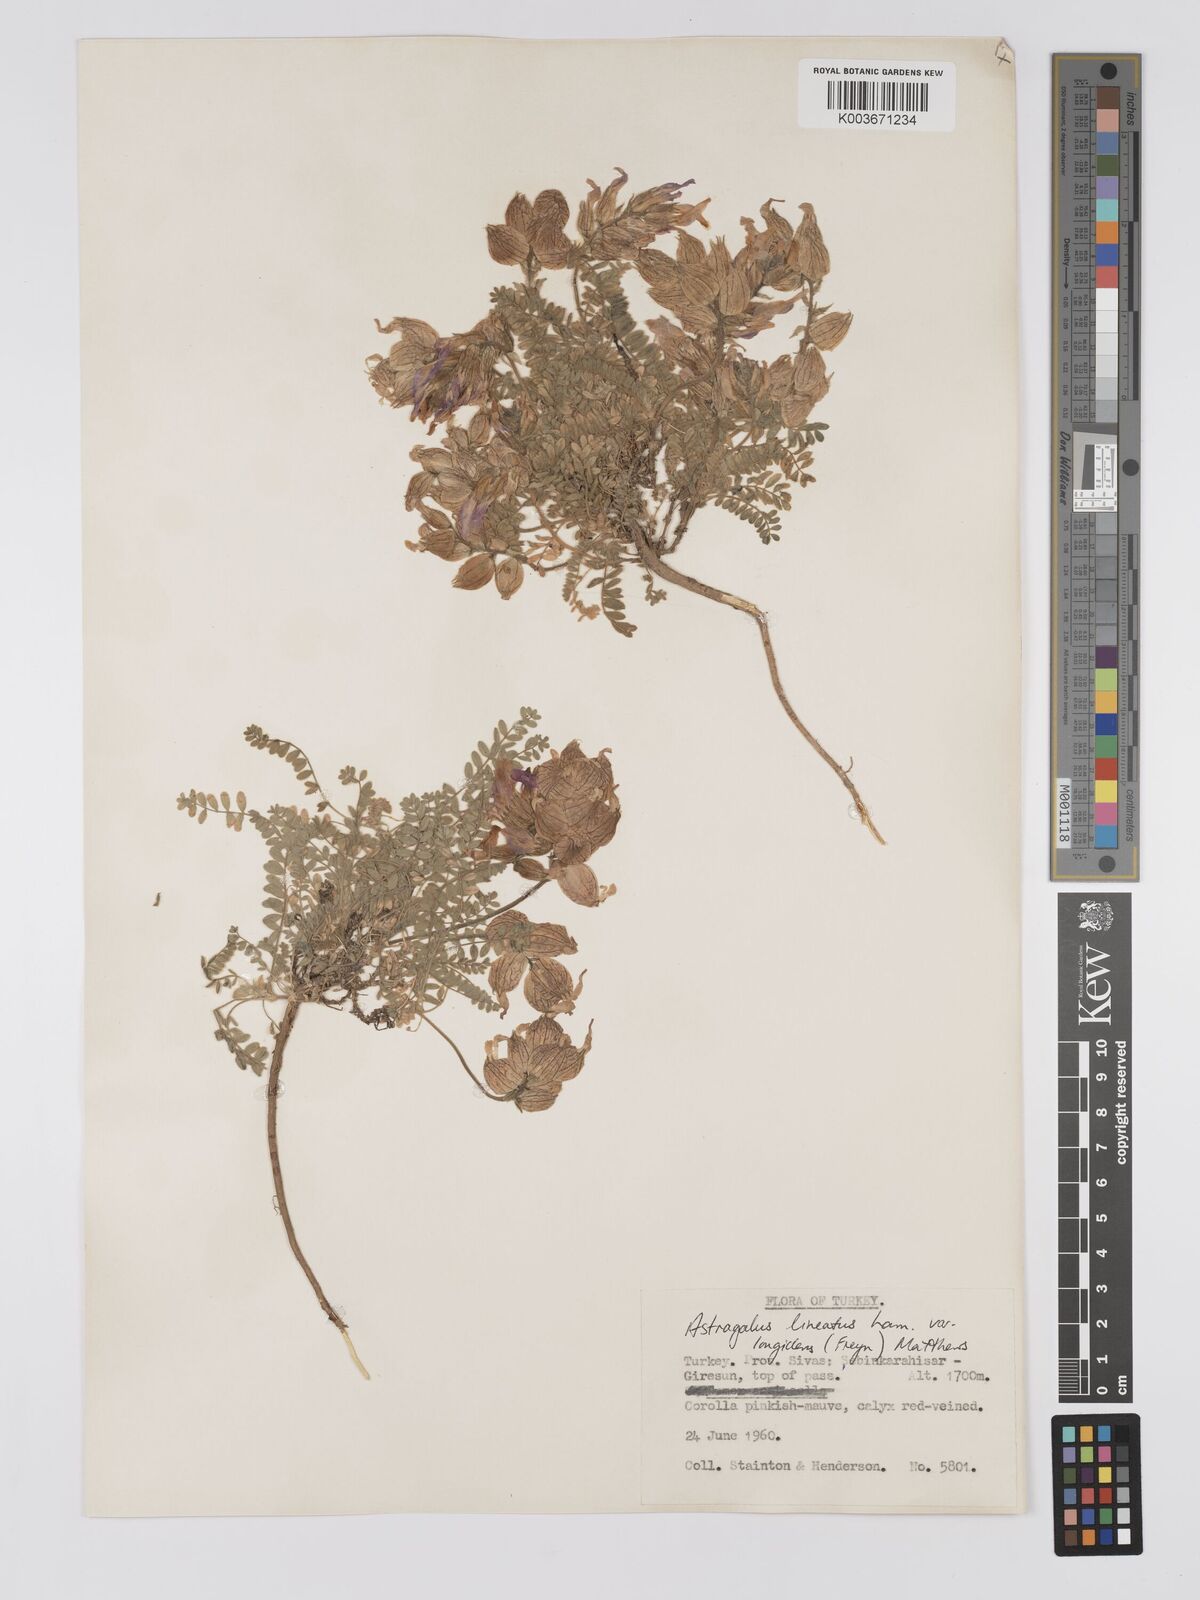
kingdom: Plantae
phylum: Tracheophyta
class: Magnoliopsida
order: Fabales
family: Fabaceae
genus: Astragalus
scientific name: Astragalus lineatus
